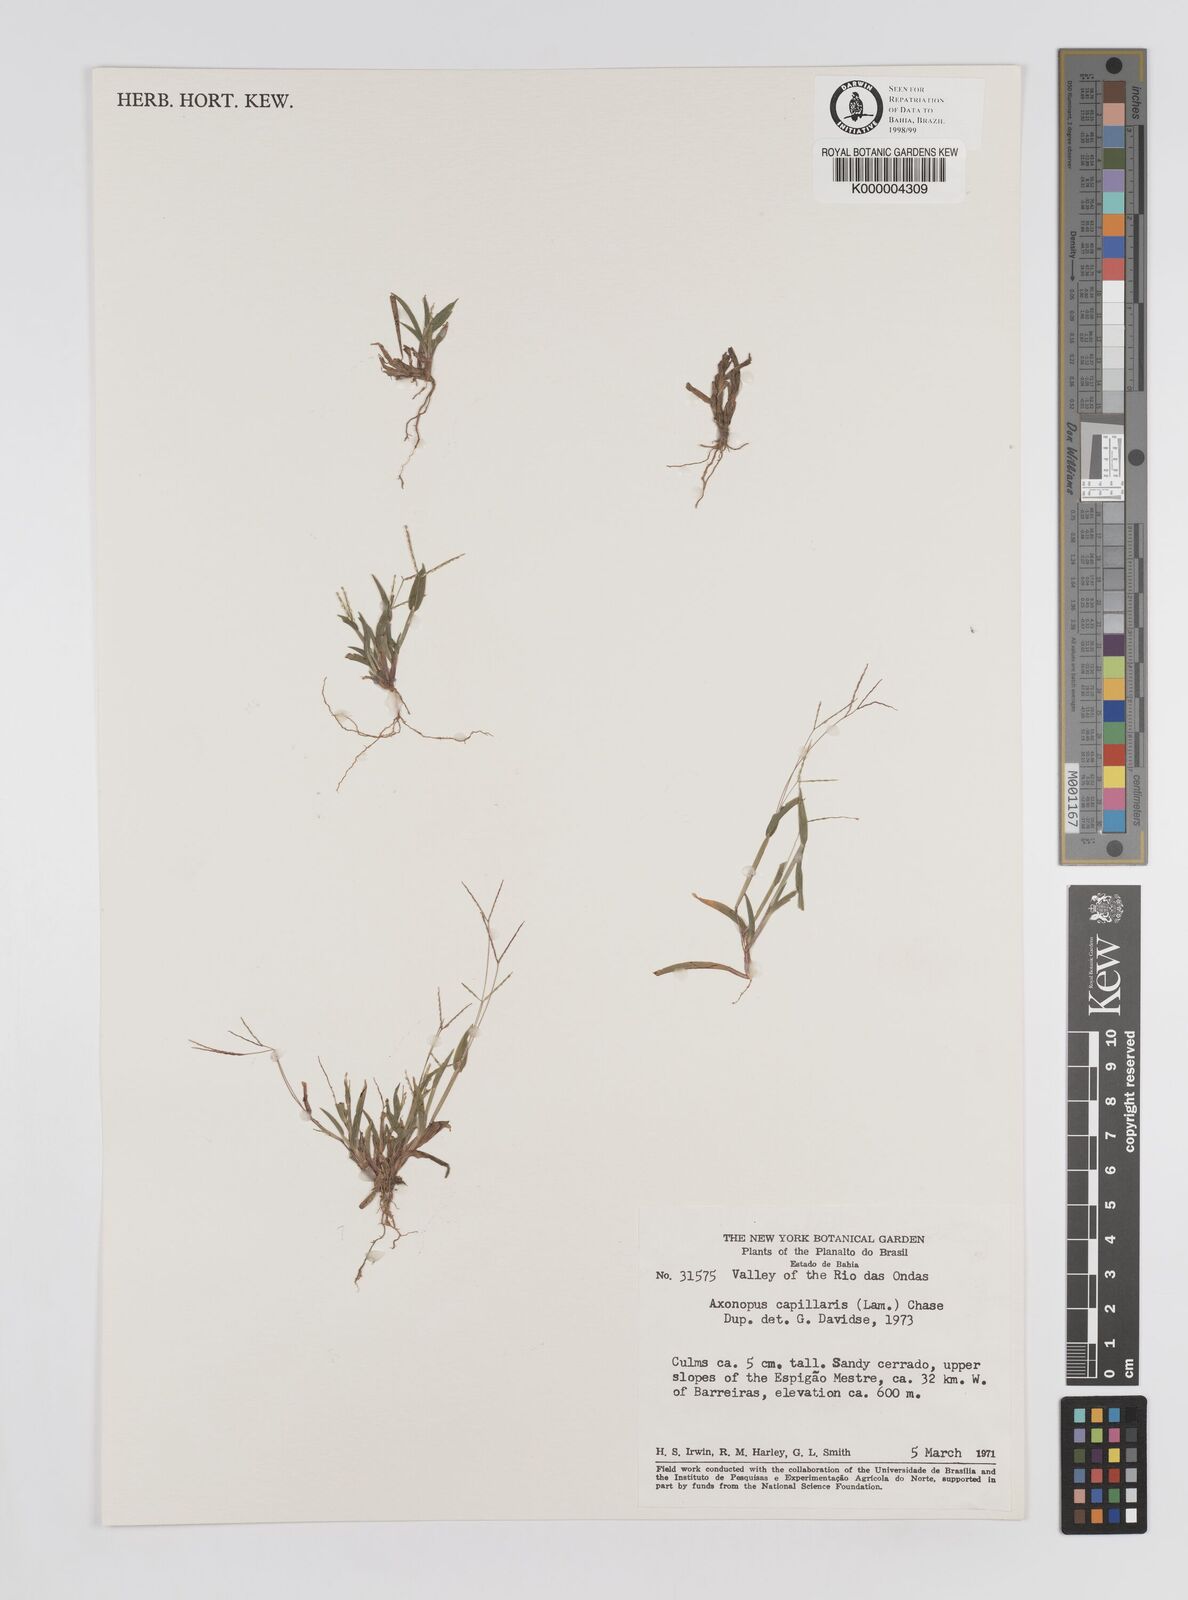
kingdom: Plantae
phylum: Tracheophyta
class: Liliopsida
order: Poales
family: Poaceae
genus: Axonopus
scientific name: Axonopus capillaris
